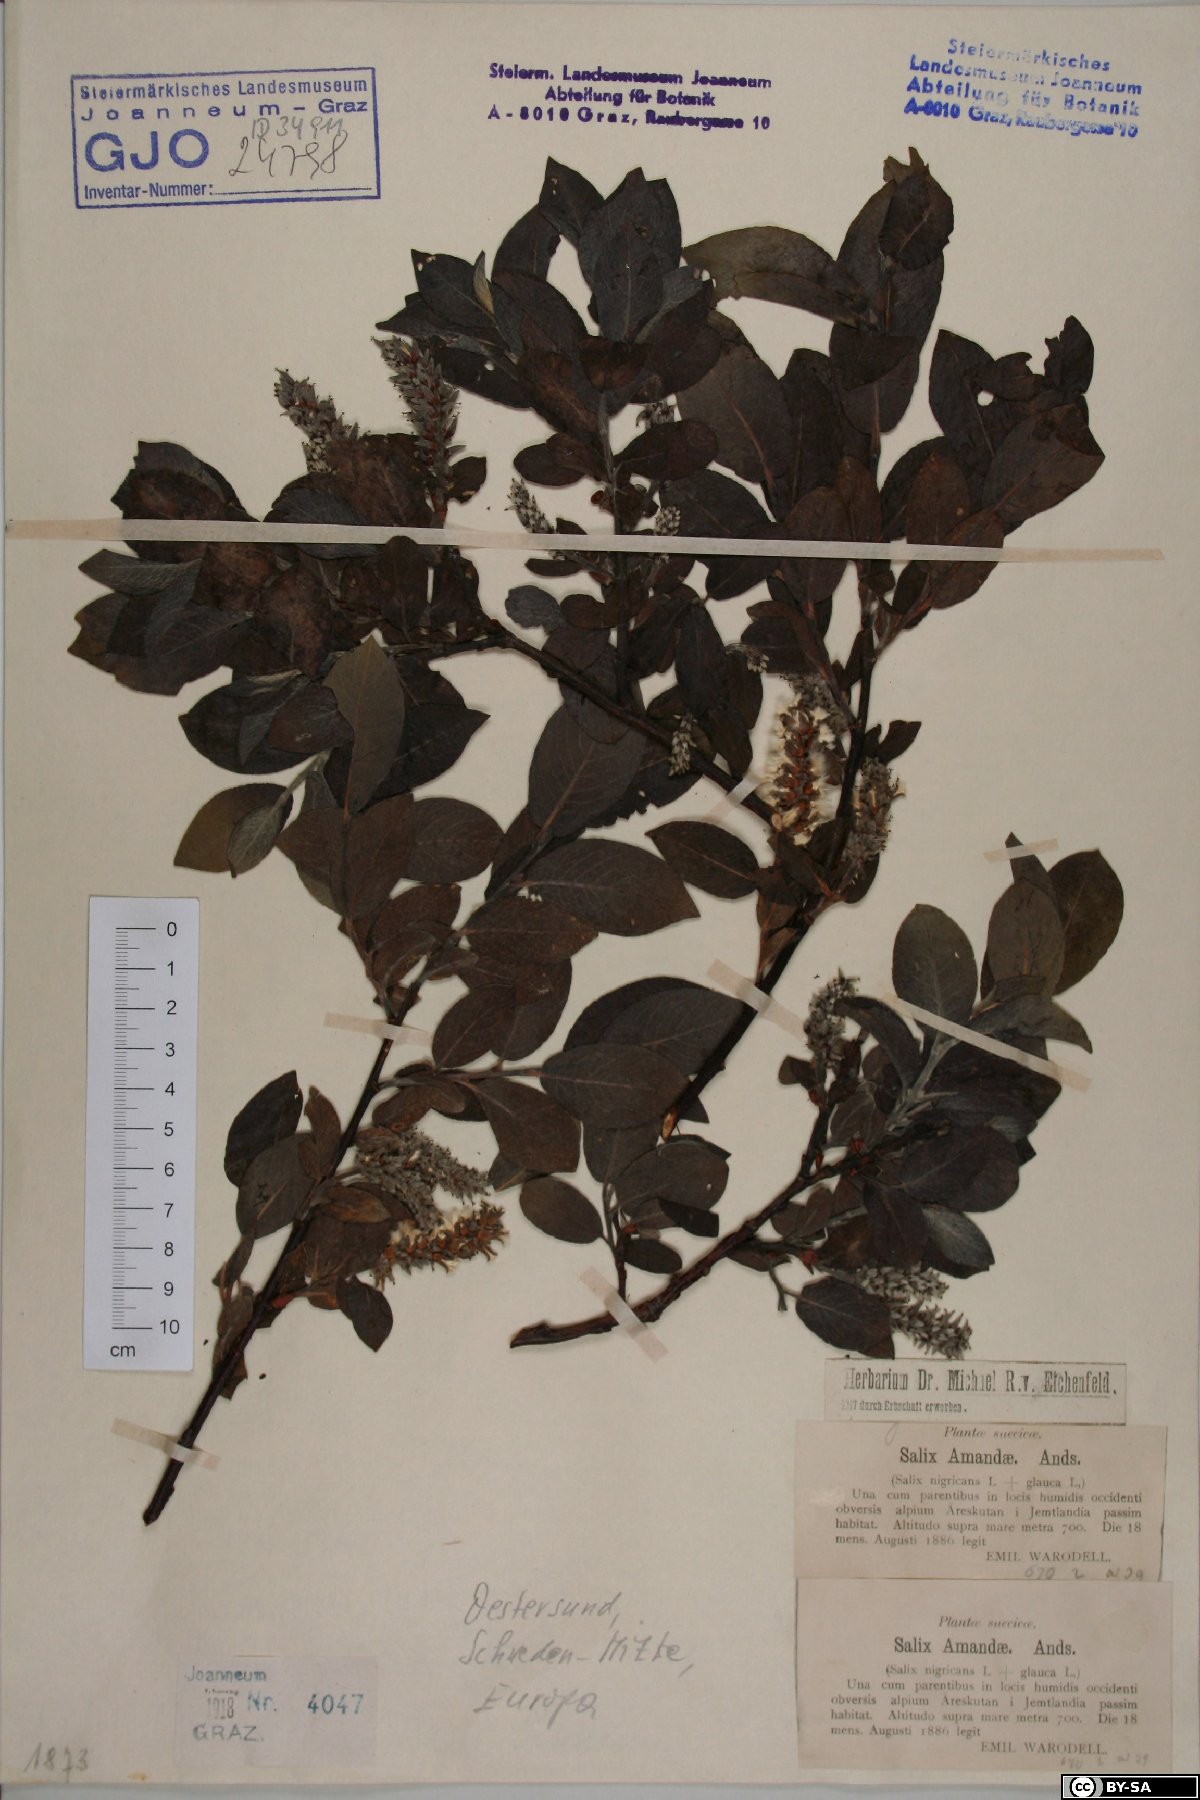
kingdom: Plantae
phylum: Tracheophyta
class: Magnoliopsida
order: Malpighiales
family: Salicaceae
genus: Salix
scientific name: Salix glauca
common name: Glaucous willow
